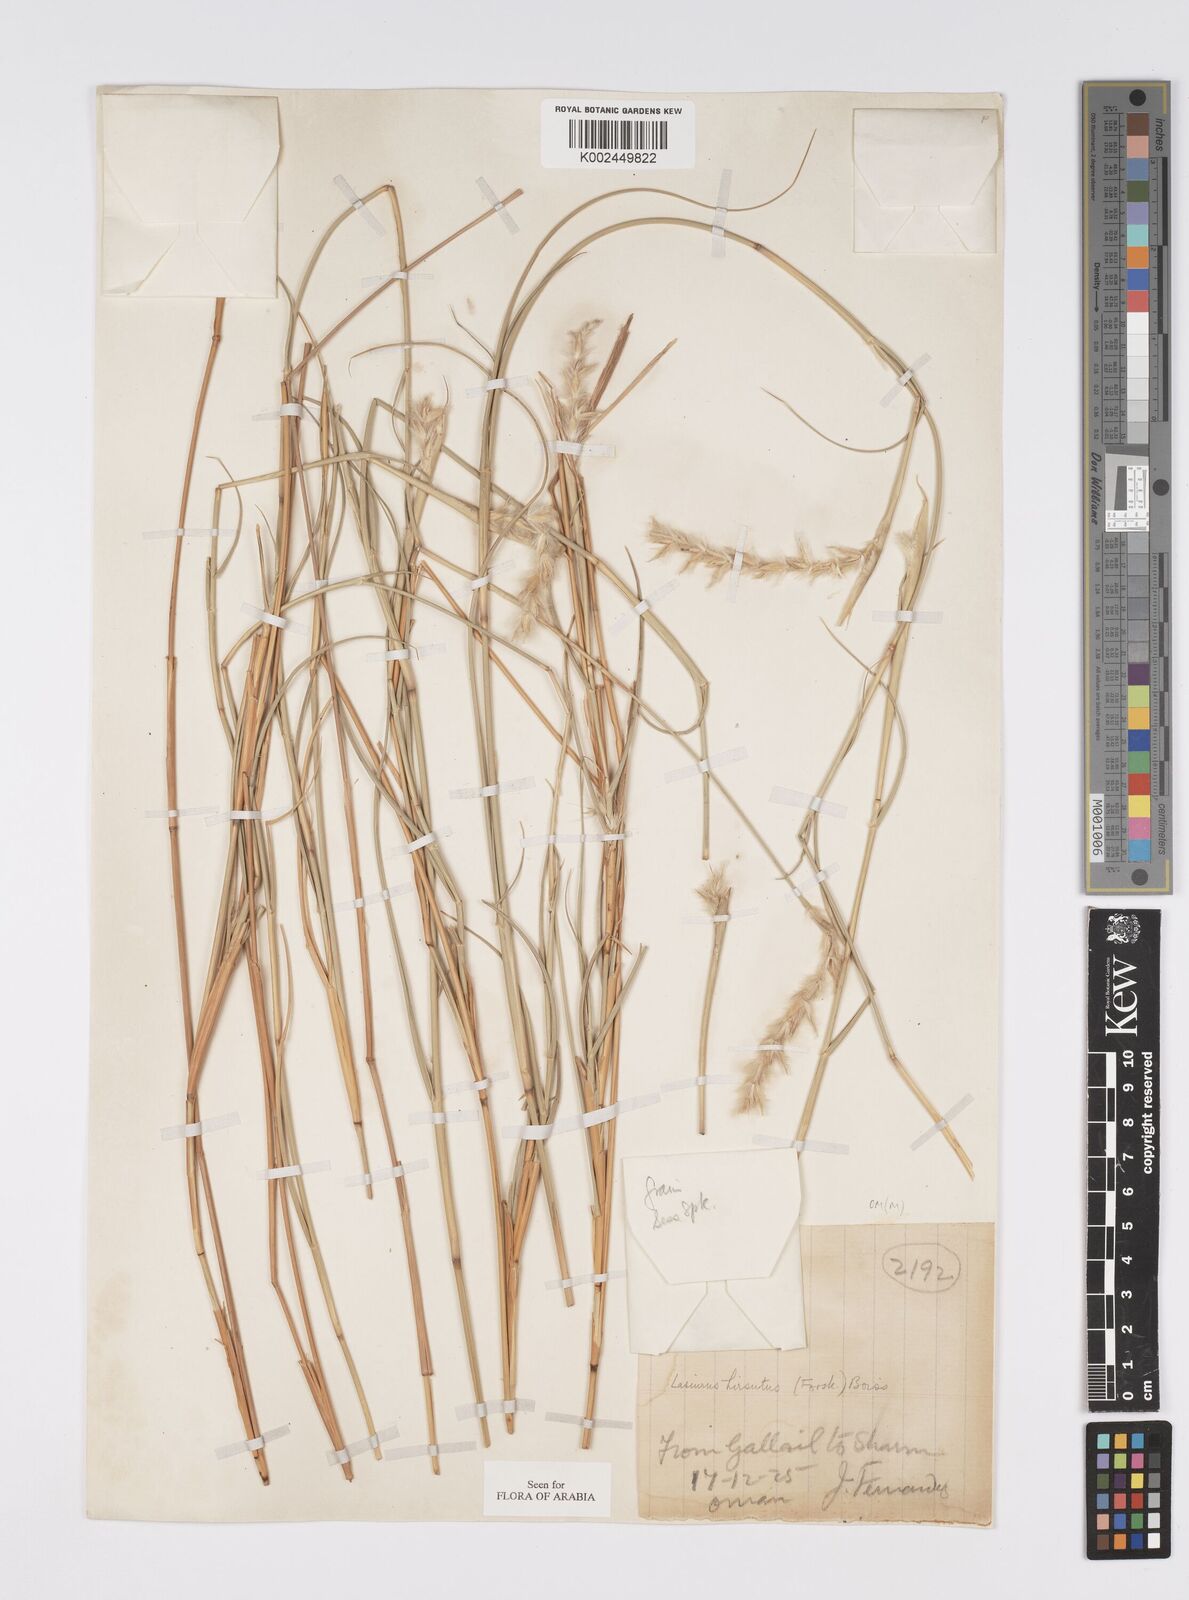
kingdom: Plantae
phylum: Tracheophyta
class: Liliopsida
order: Poales
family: Poaceae
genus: Lasiurus
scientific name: Lasiurus scindicus
